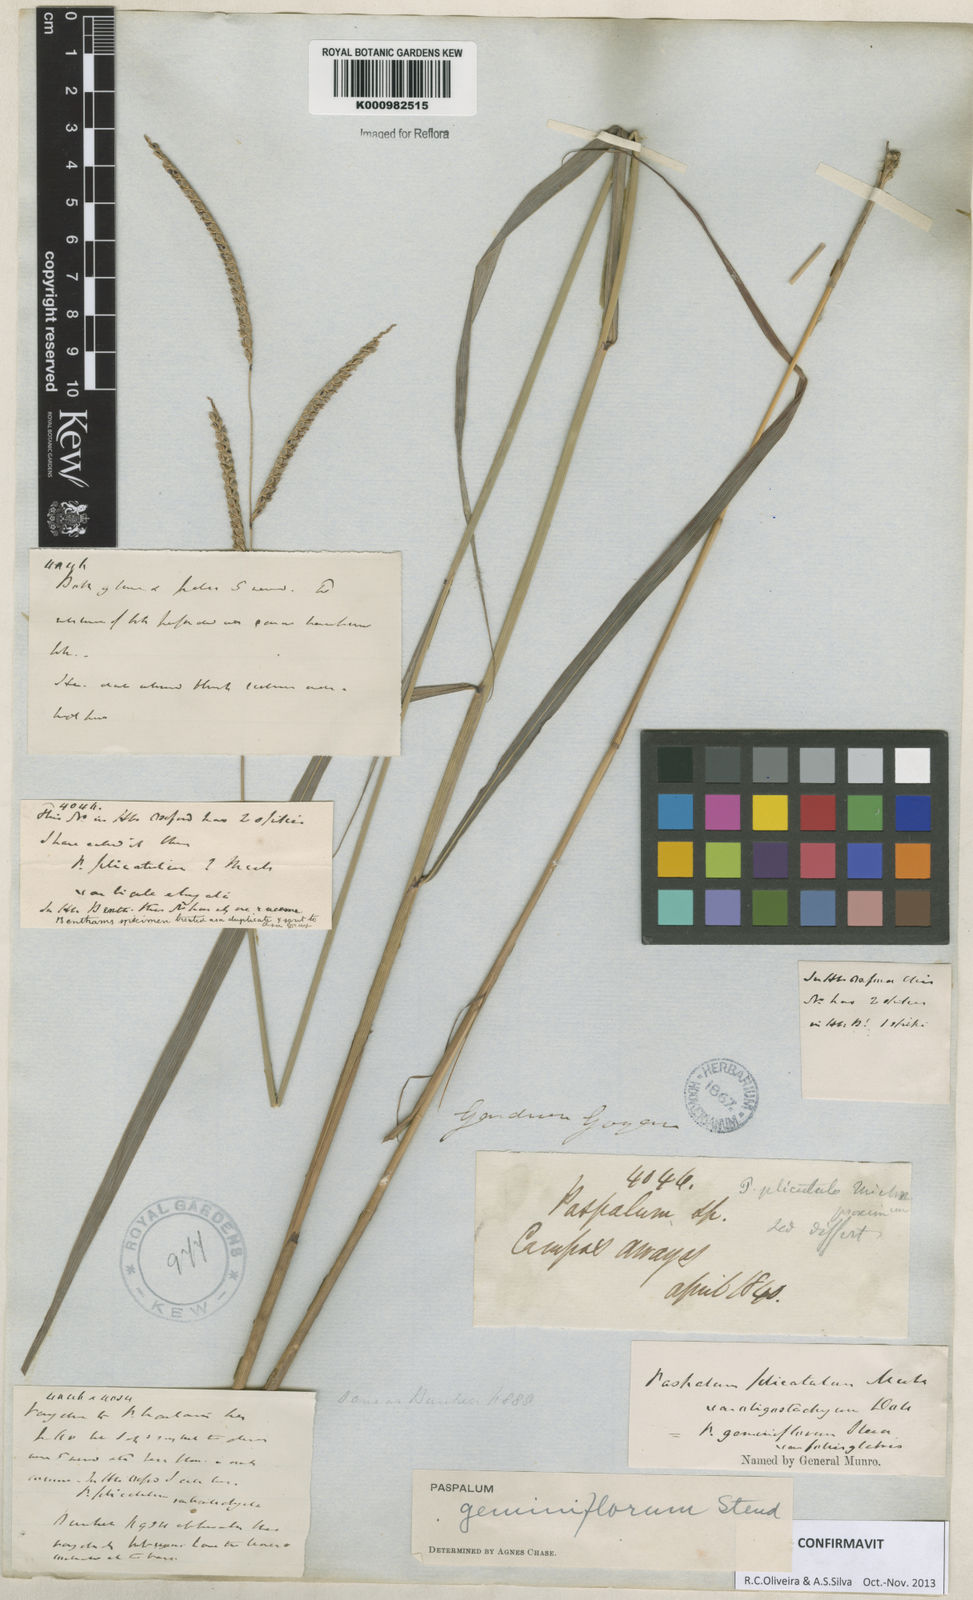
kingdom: Plantae
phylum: Tracheophyta
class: Liliopsida
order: Poales
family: Poaceae
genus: Paspalum
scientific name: Paspalum geminiflorum
